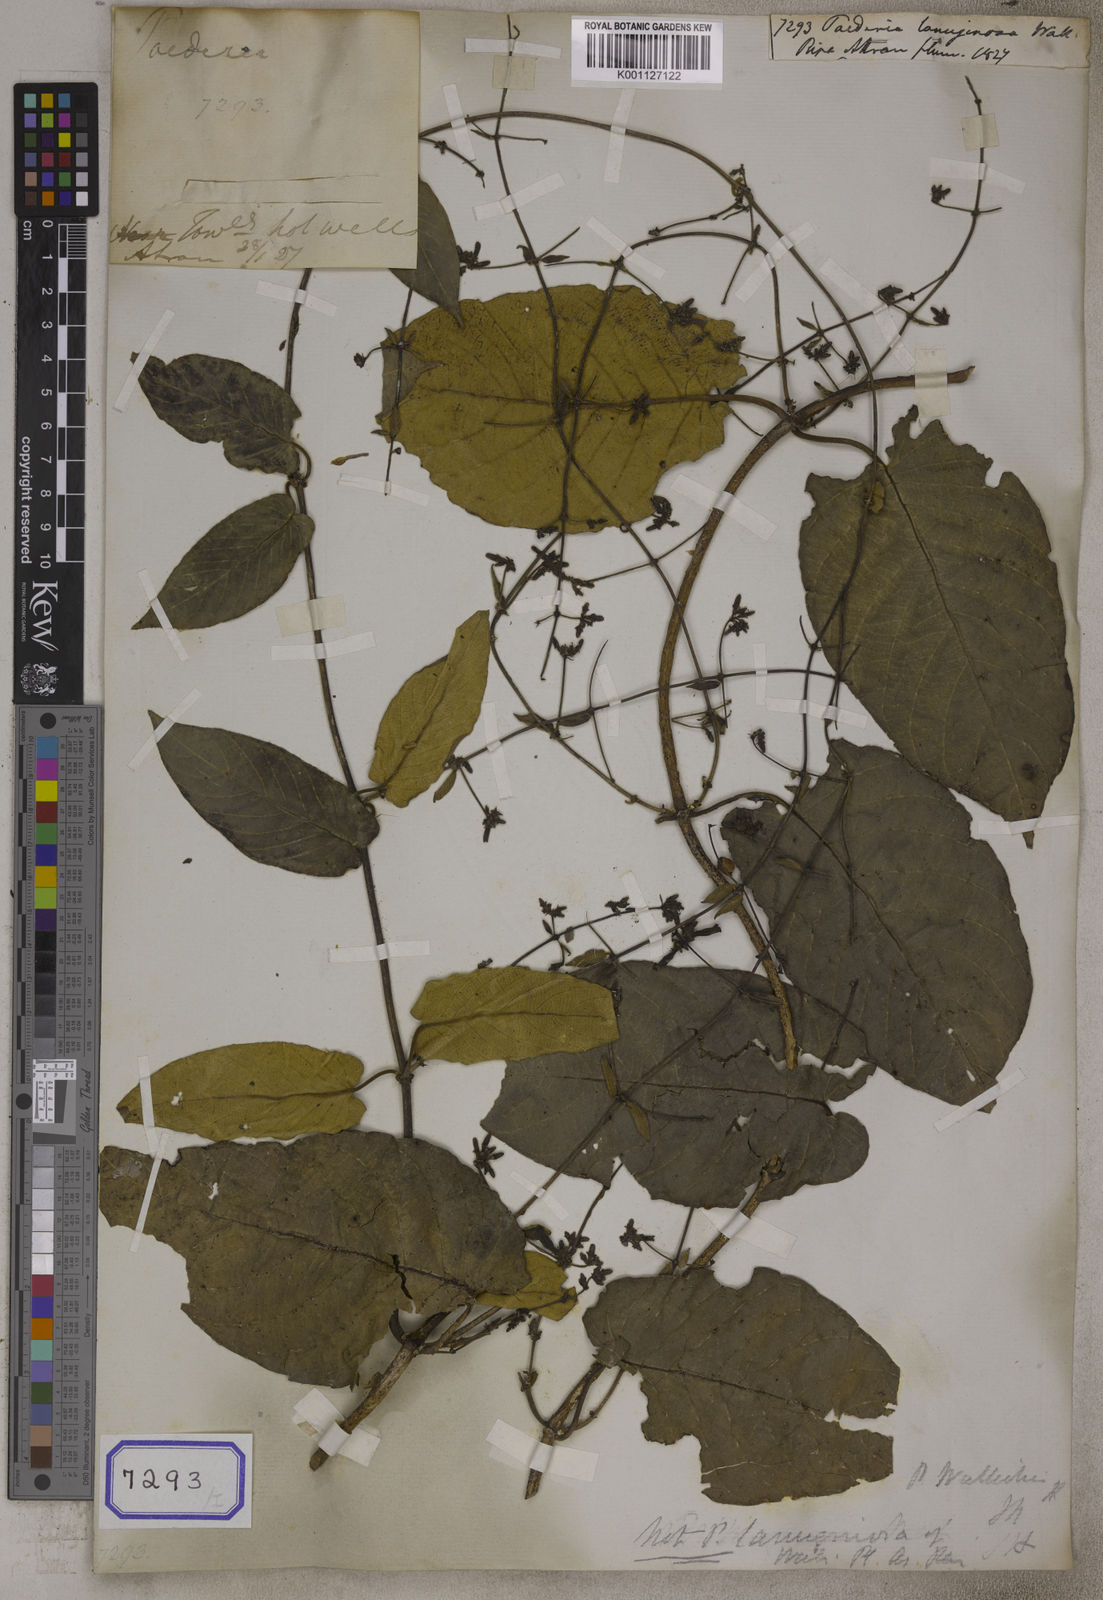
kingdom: Plantae
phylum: Tracheophyta
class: Magnoliopsida
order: Gentianales
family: Rubiaceae
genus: Paederia
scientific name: Paederia lanuginosa
